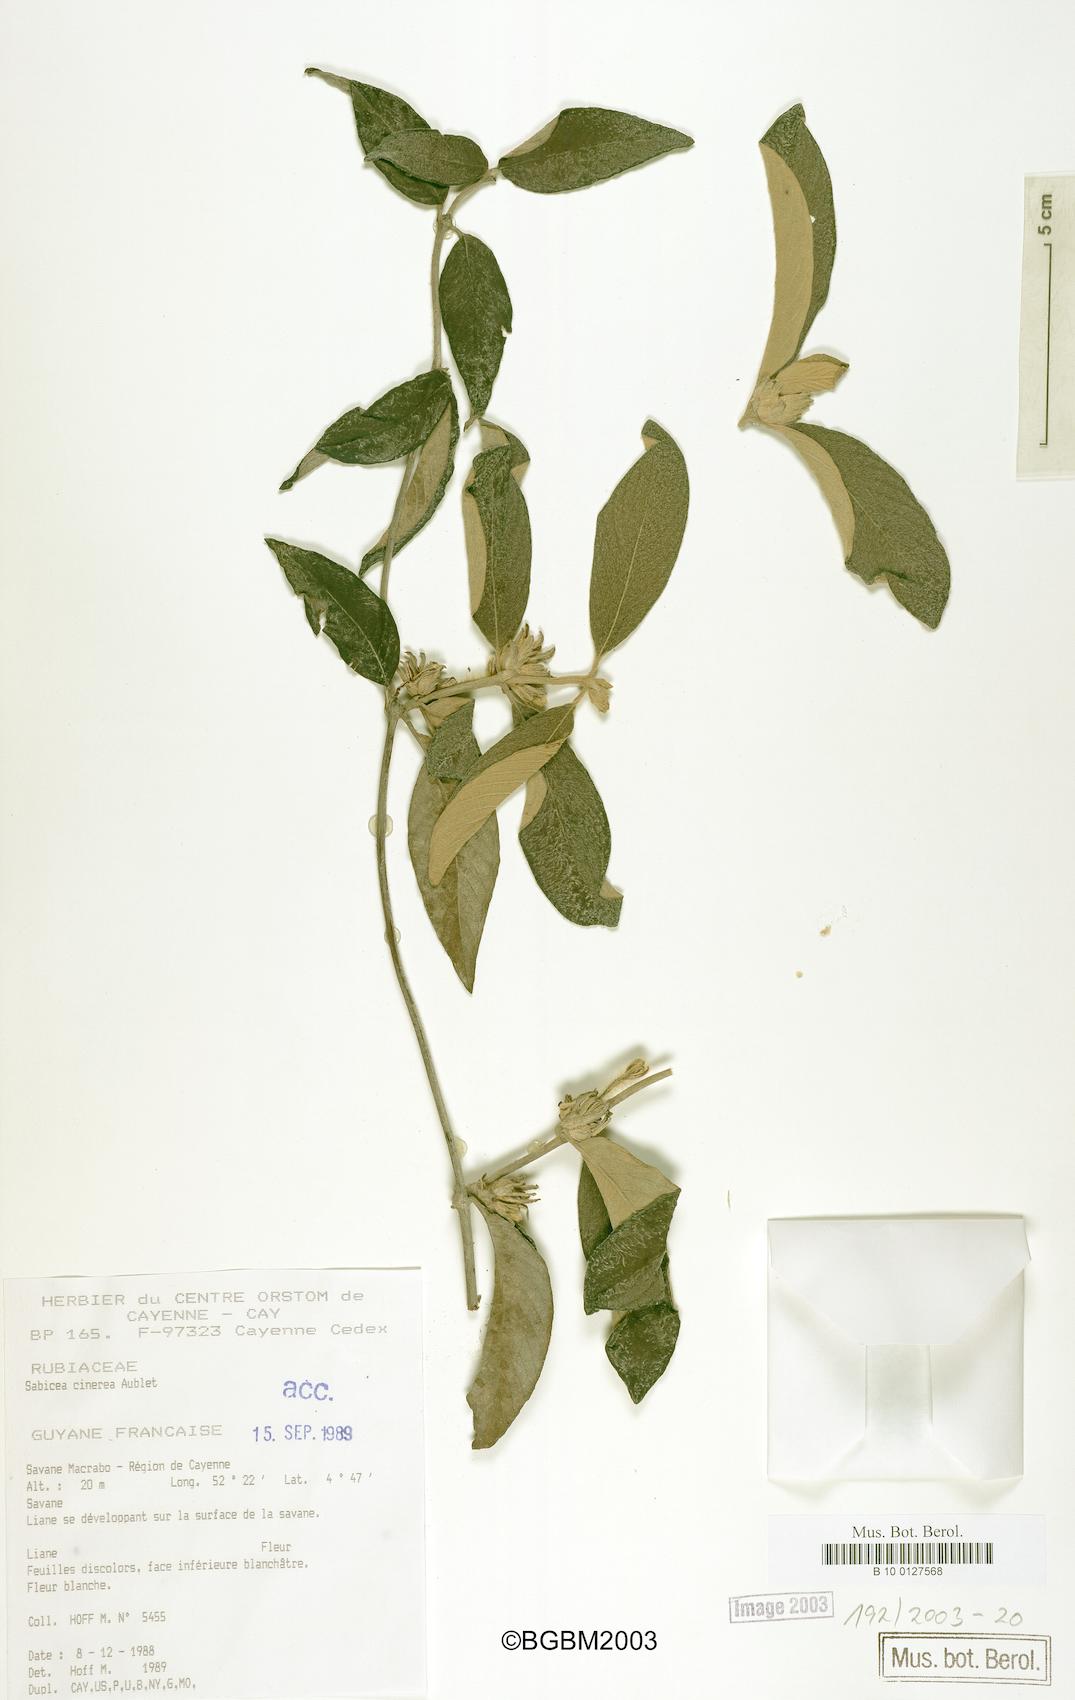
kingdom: Plantae
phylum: Tracheophyta
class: Magnoliopsida
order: Gentianales
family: Rubiaceae
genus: Sabicea
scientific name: Sabicea cinerea
